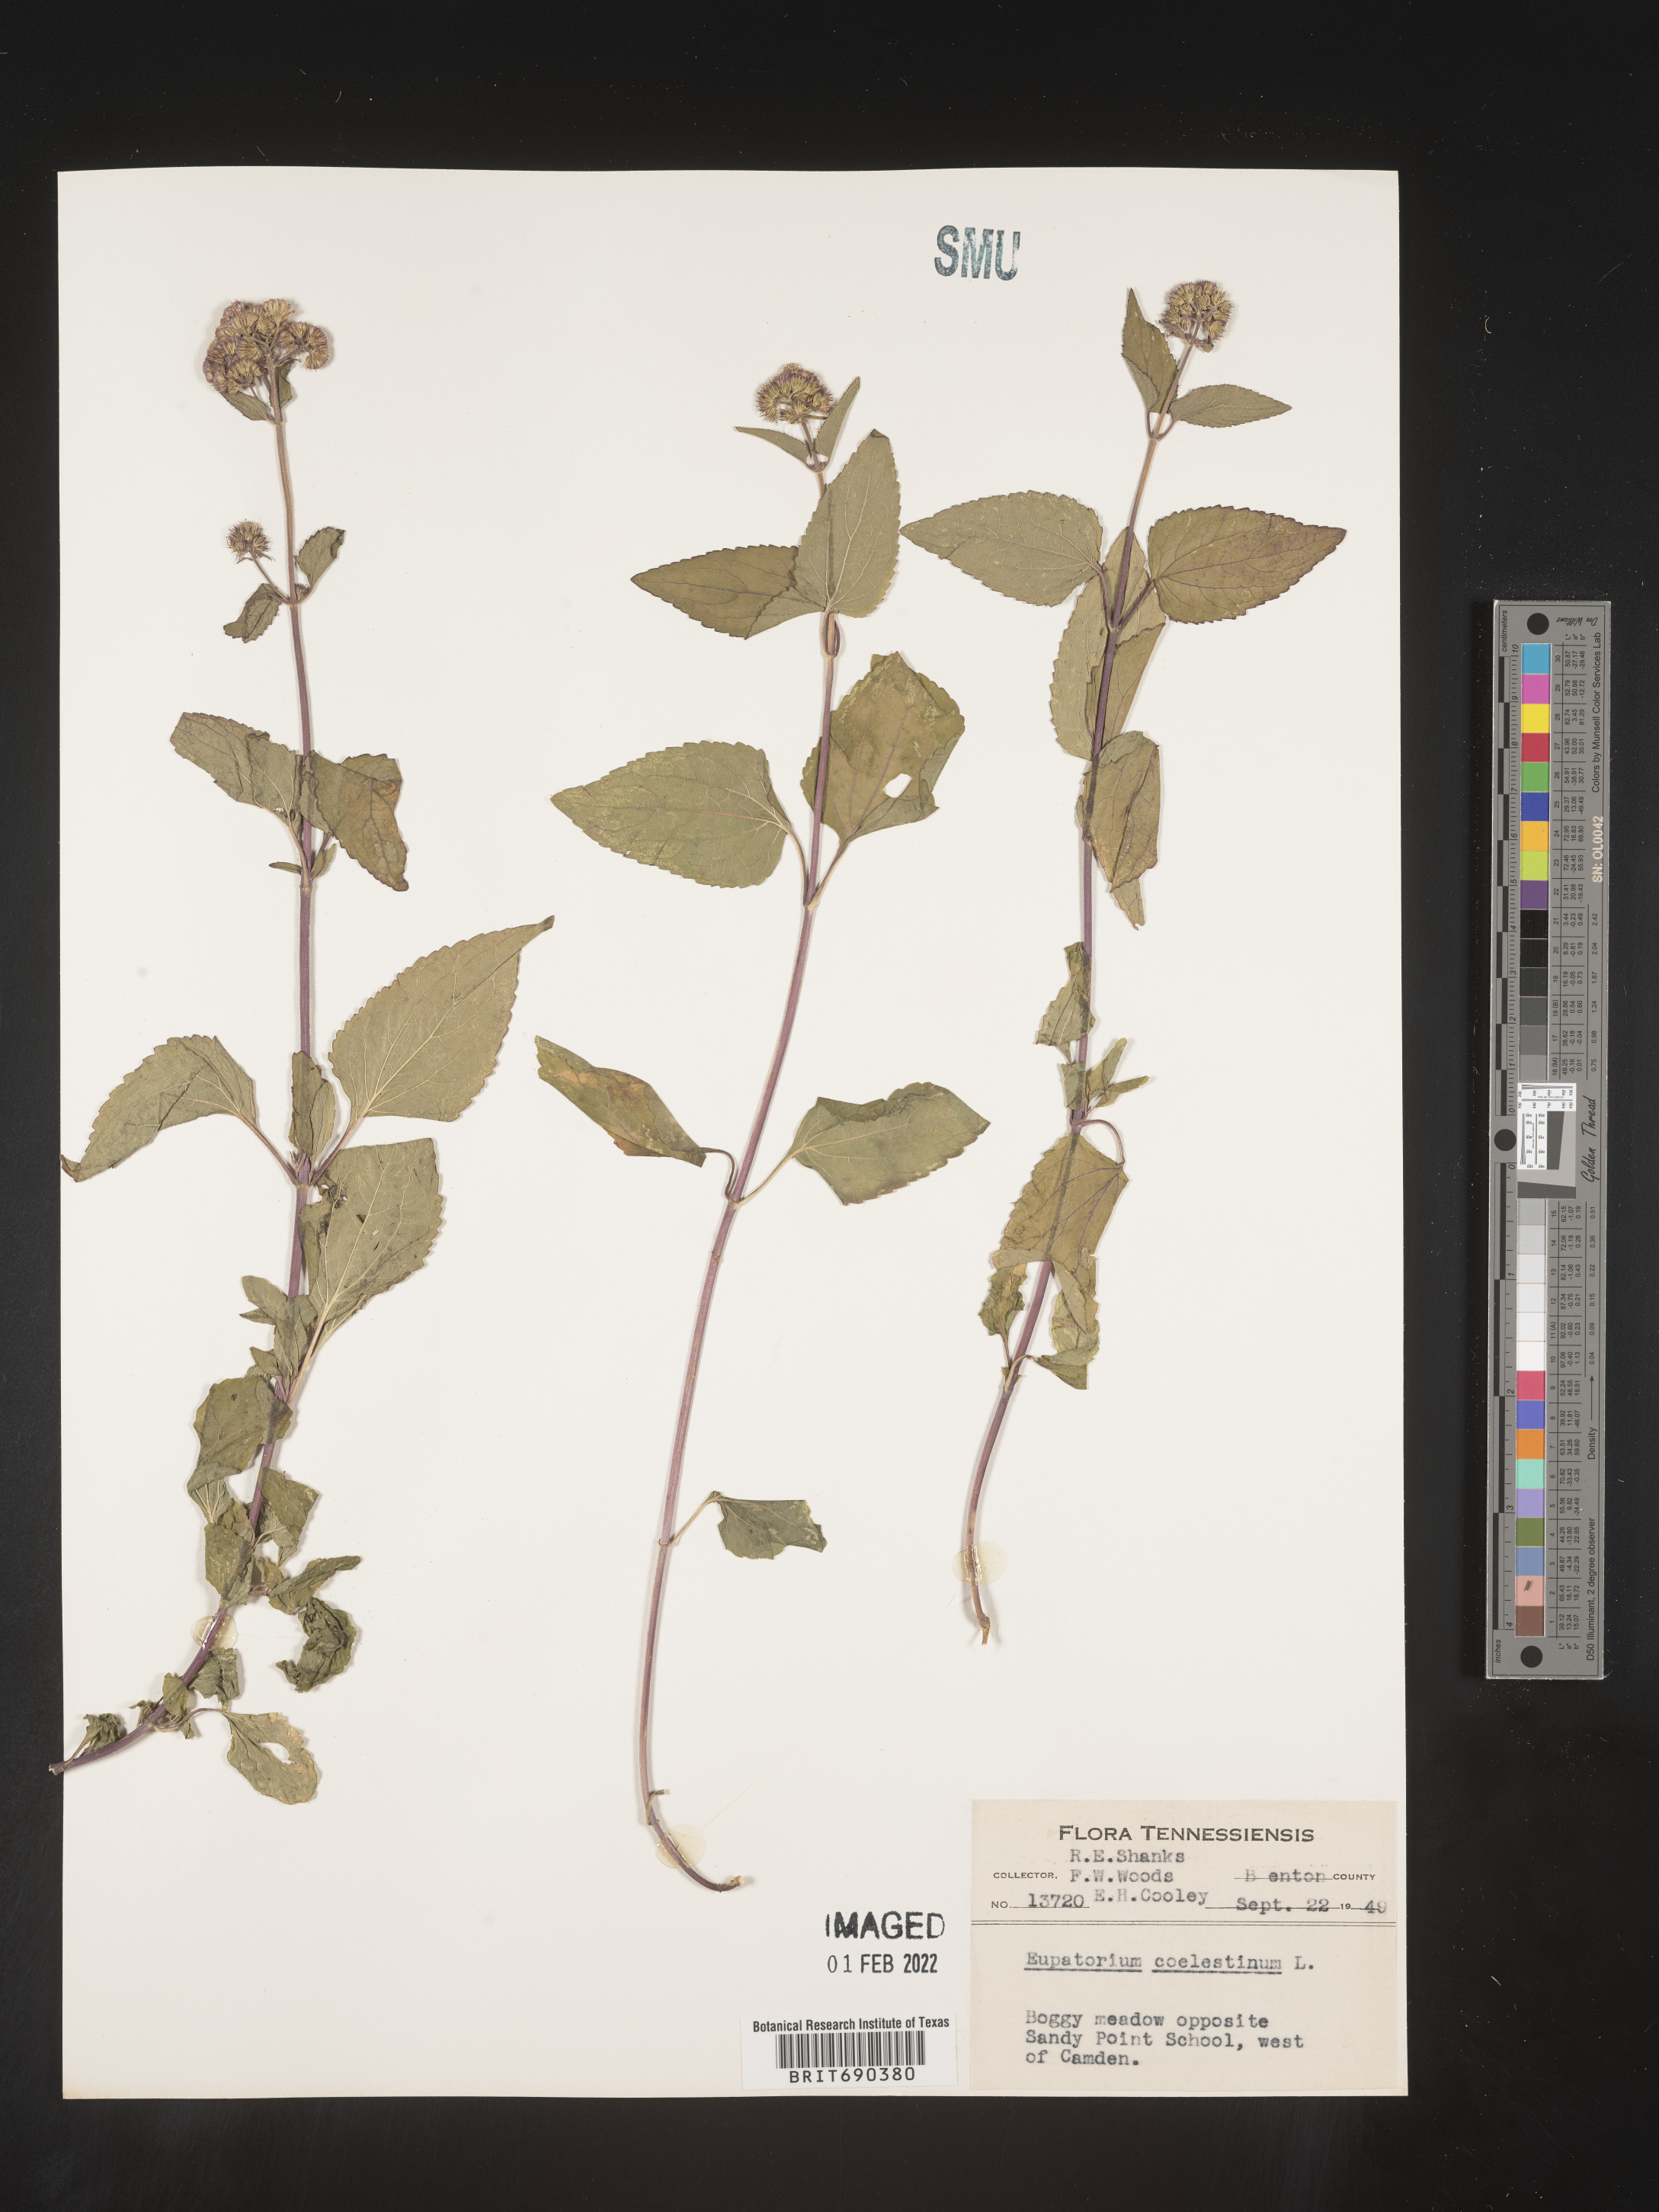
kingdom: Plantae
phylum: Tracheophyta
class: Magnoliopsida
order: Asterales
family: Asteraceae
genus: Conoclinium
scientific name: Conoclinium coelestinum
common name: Blue mistflower
